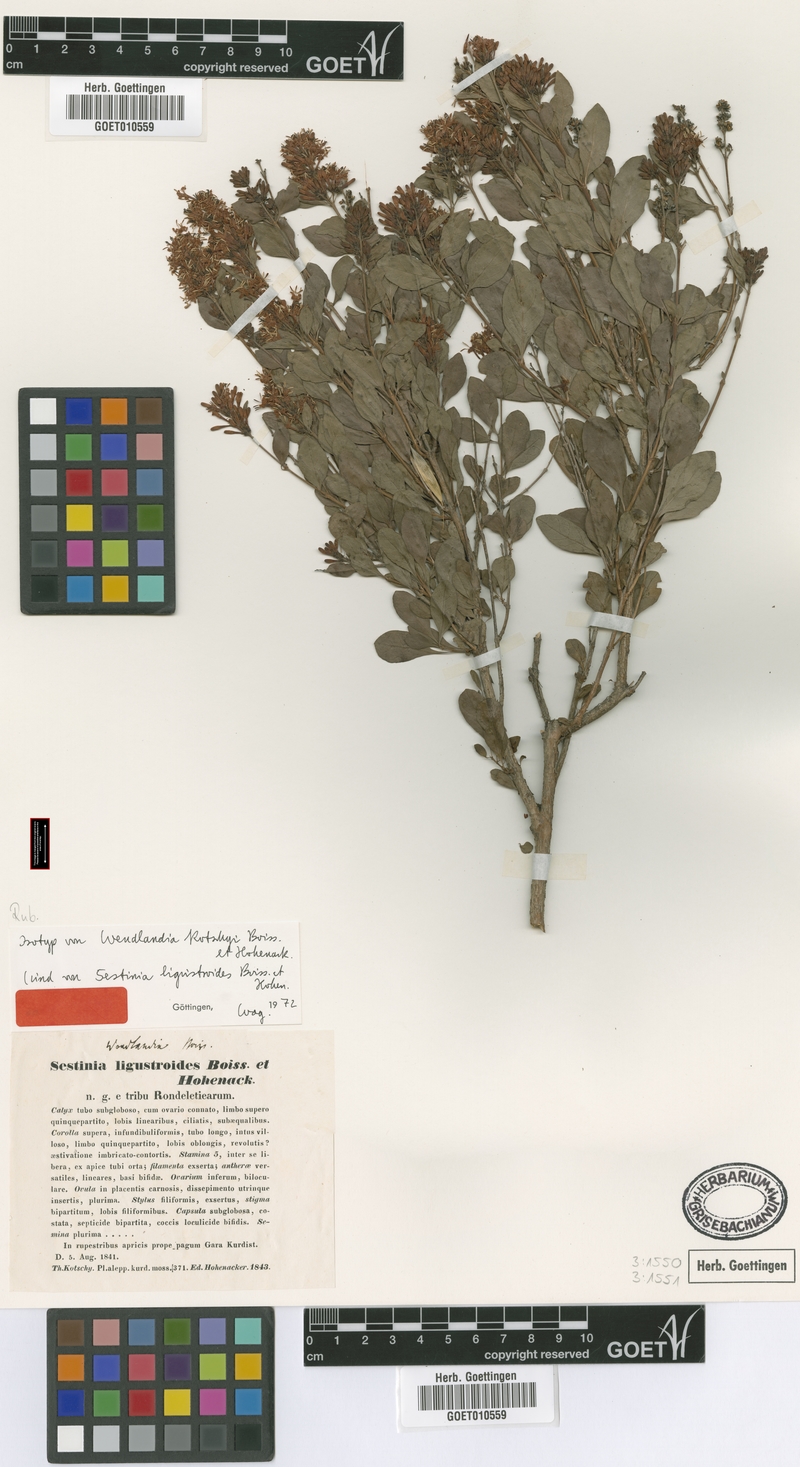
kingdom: Plantae
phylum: Tracheophyta
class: Magnoliopsida
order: Gentianales
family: Rubiaceae
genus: Wendlandia
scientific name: Wendlandia ligustroides
